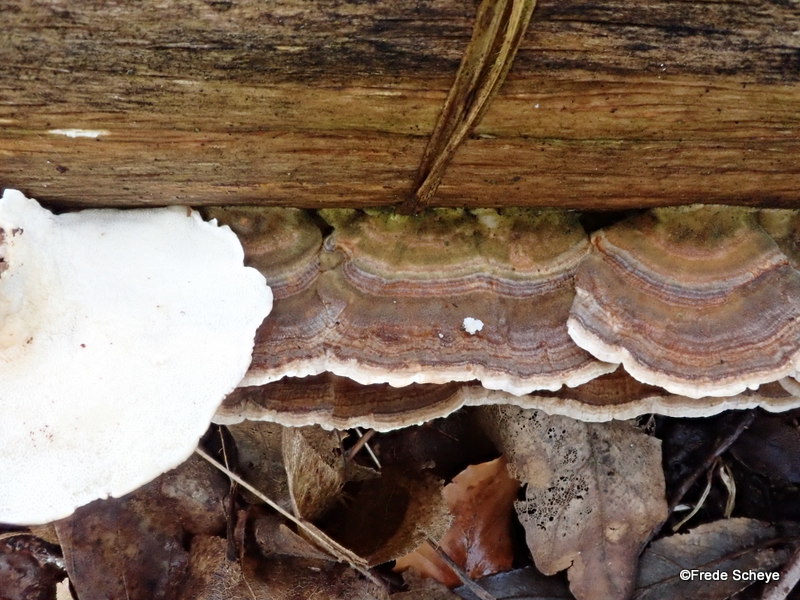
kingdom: Fungi
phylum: Basidiomycota
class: Agaricomycetes
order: Polyporales
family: Polyporaceae
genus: Trametes
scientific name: Trametes versicolor
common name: broget læderporesvamp
